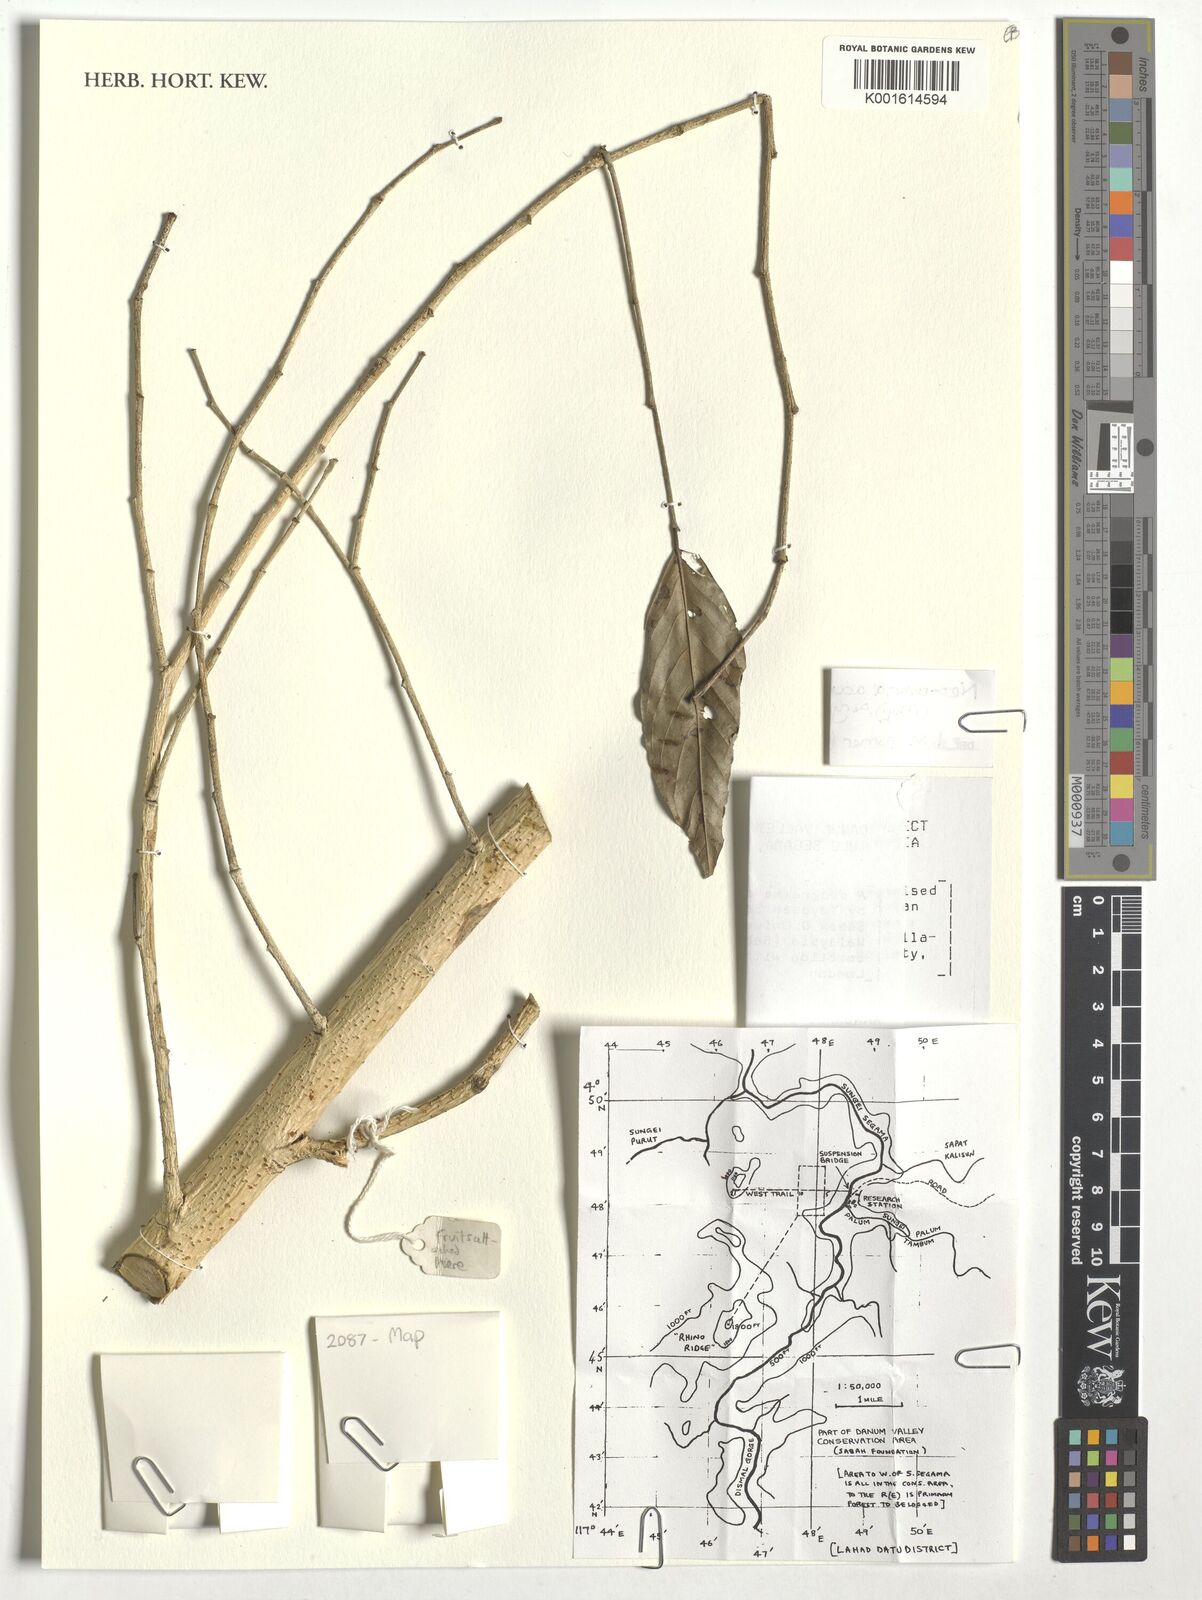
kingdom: Plantae
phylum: Tracheophyta
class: Magnoliopsida
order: Magnoliales
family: Annonaceae
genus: Neouvaria
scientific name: Neouvaria acuminatissima
